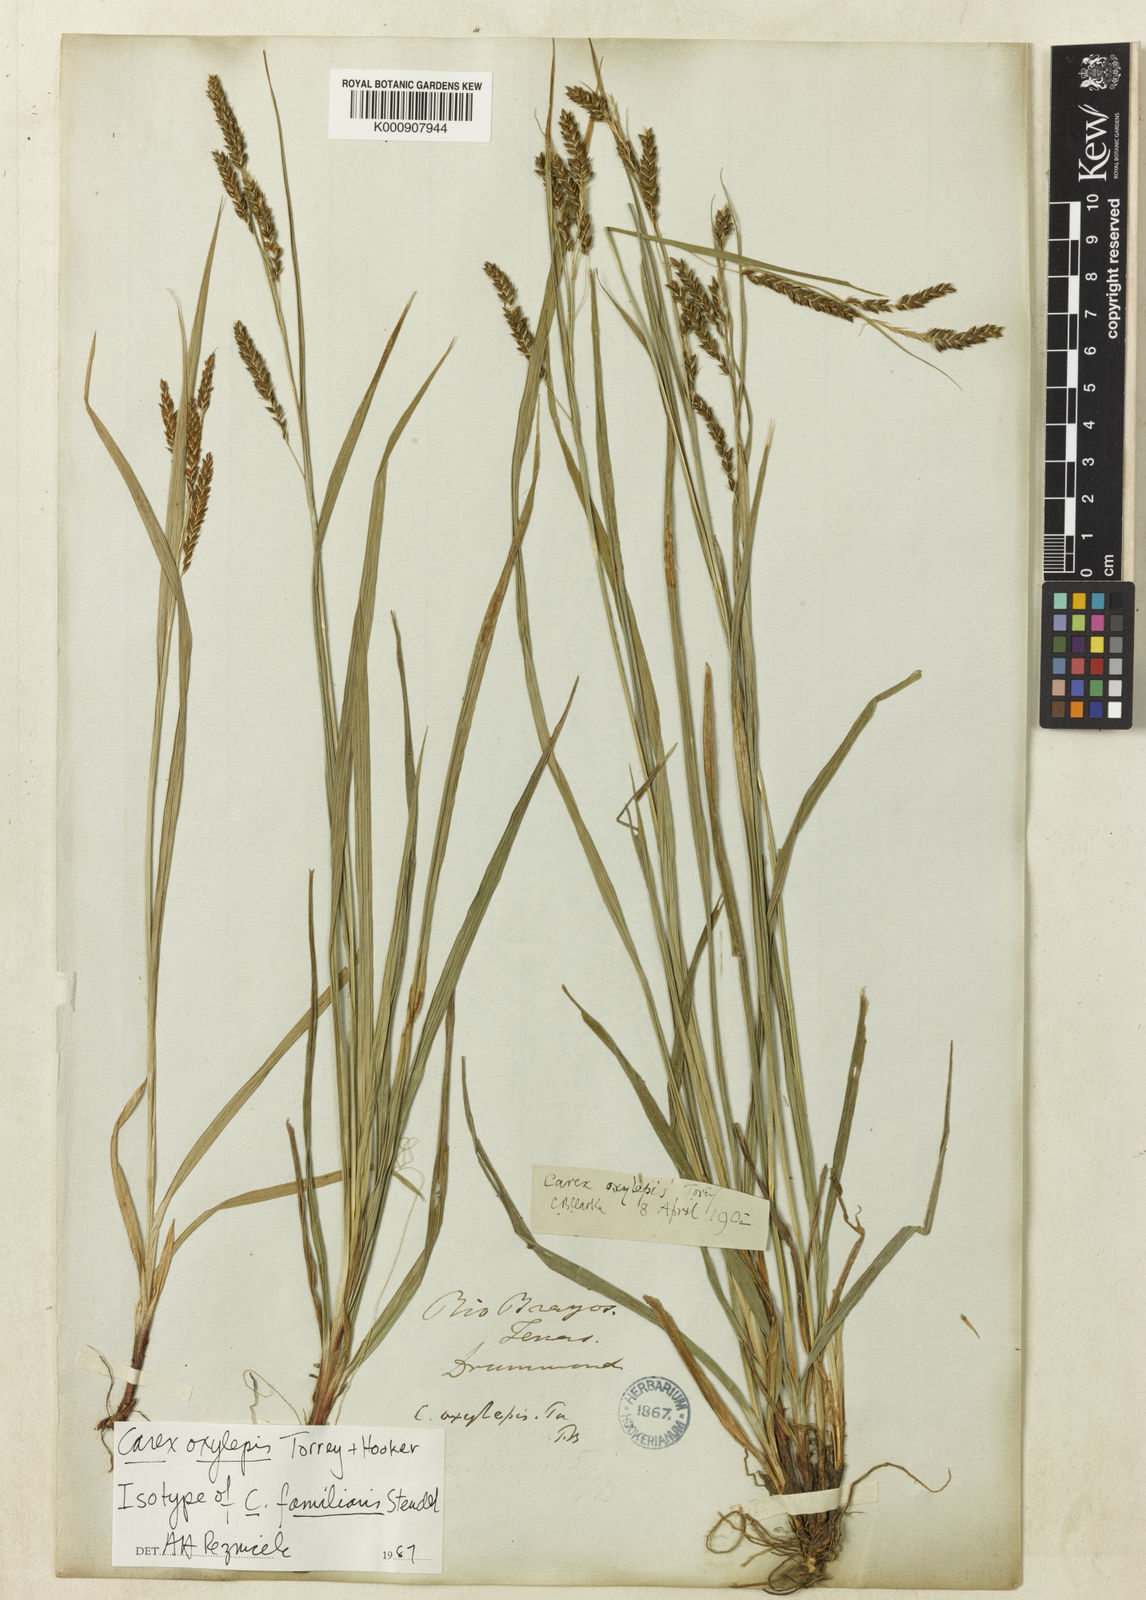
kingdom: Plantae
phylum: Tracheophyta
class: Liliopsida
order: Poales
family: Cyperaceae
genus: Carex
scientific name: Carex oxylepis
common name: Sharpscale sedge
